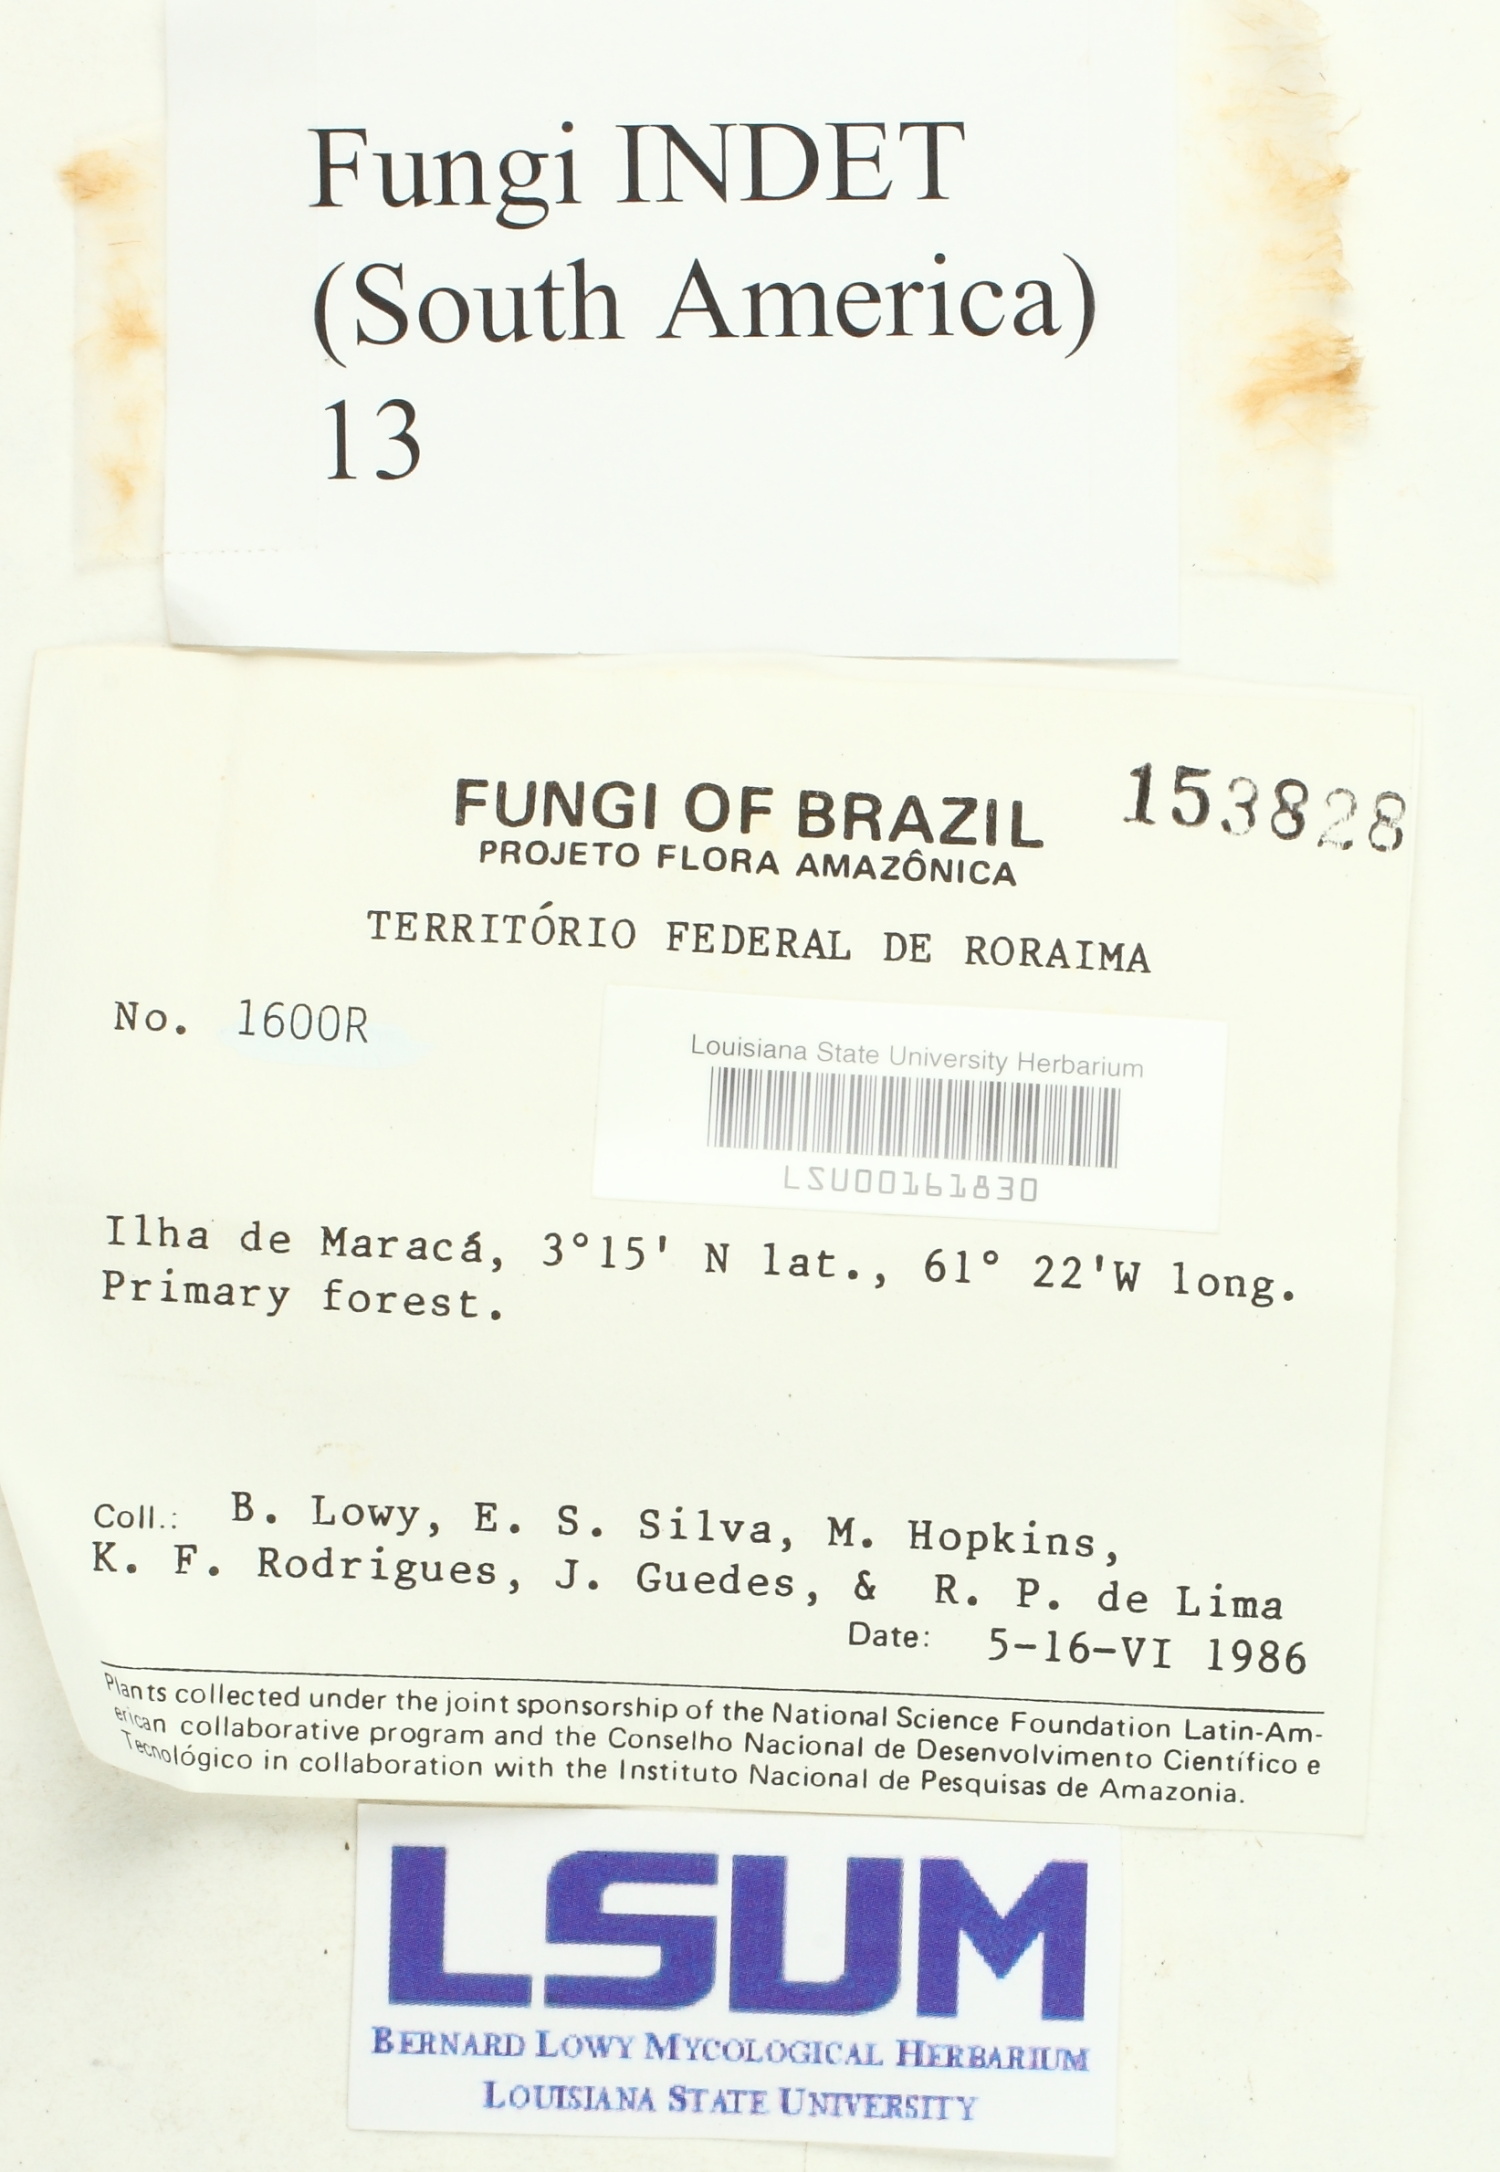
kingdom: Fungi
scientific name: Fungi
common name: Fungi
